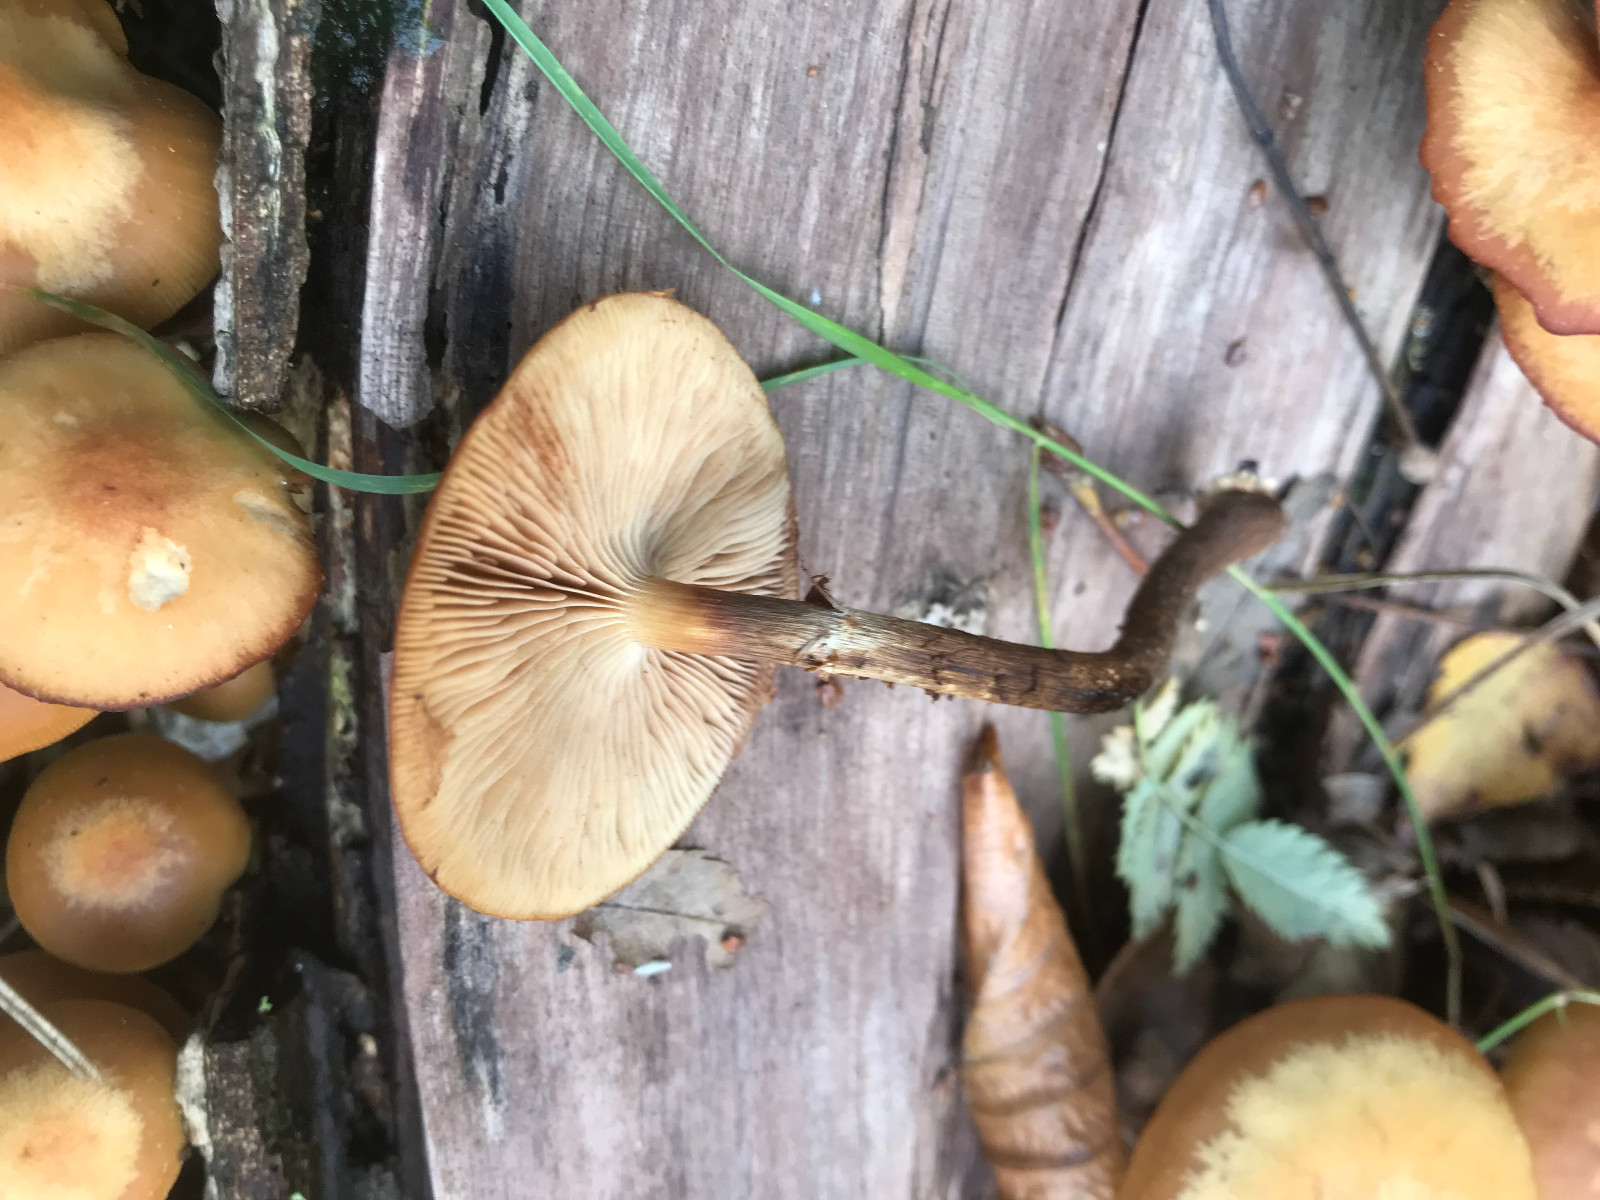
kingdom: Fungi
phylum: Basidiomycota
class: Agaricomycetes
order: Agaricales
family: Strophariaceae
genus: Kuehneromyces
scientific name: Kuehneromyces mutabilis
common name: foranderlig skælhat
